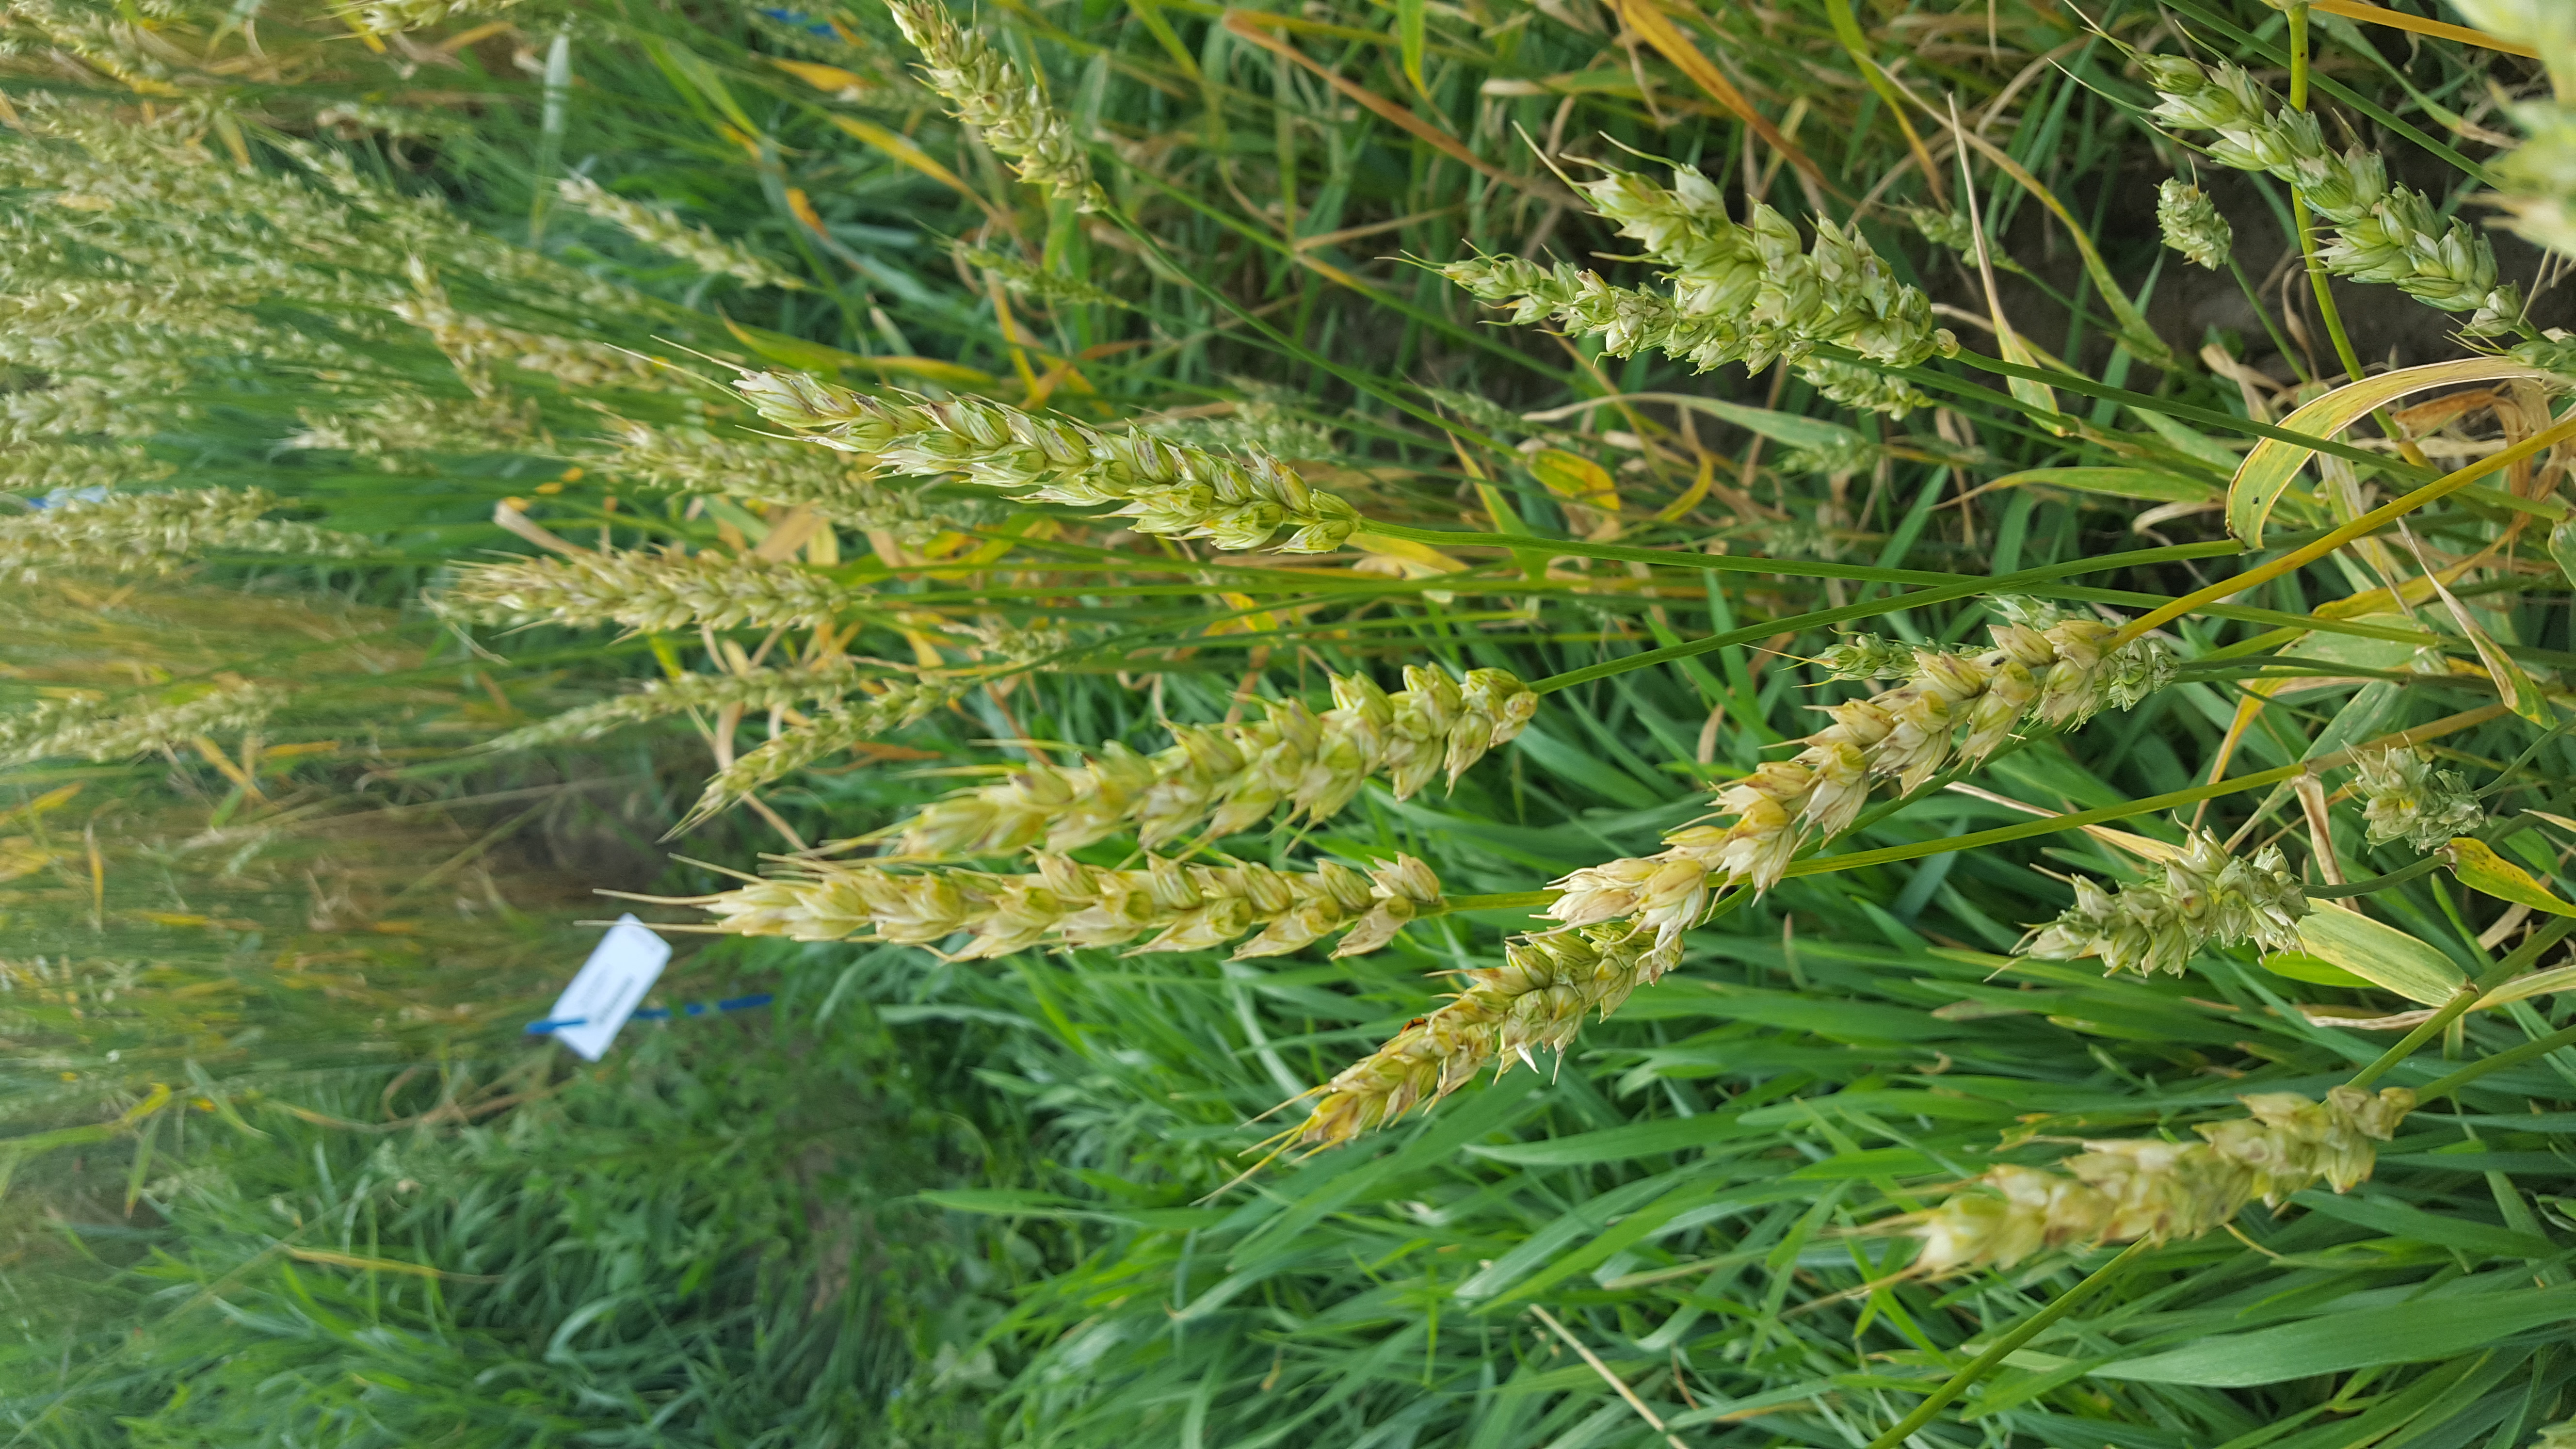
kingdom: Plantae
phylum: Tracheophyta
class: Liliopsida
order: Poales
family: Poaceae
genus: Triticum
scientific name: Triticum aestivum
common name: Common wheat
